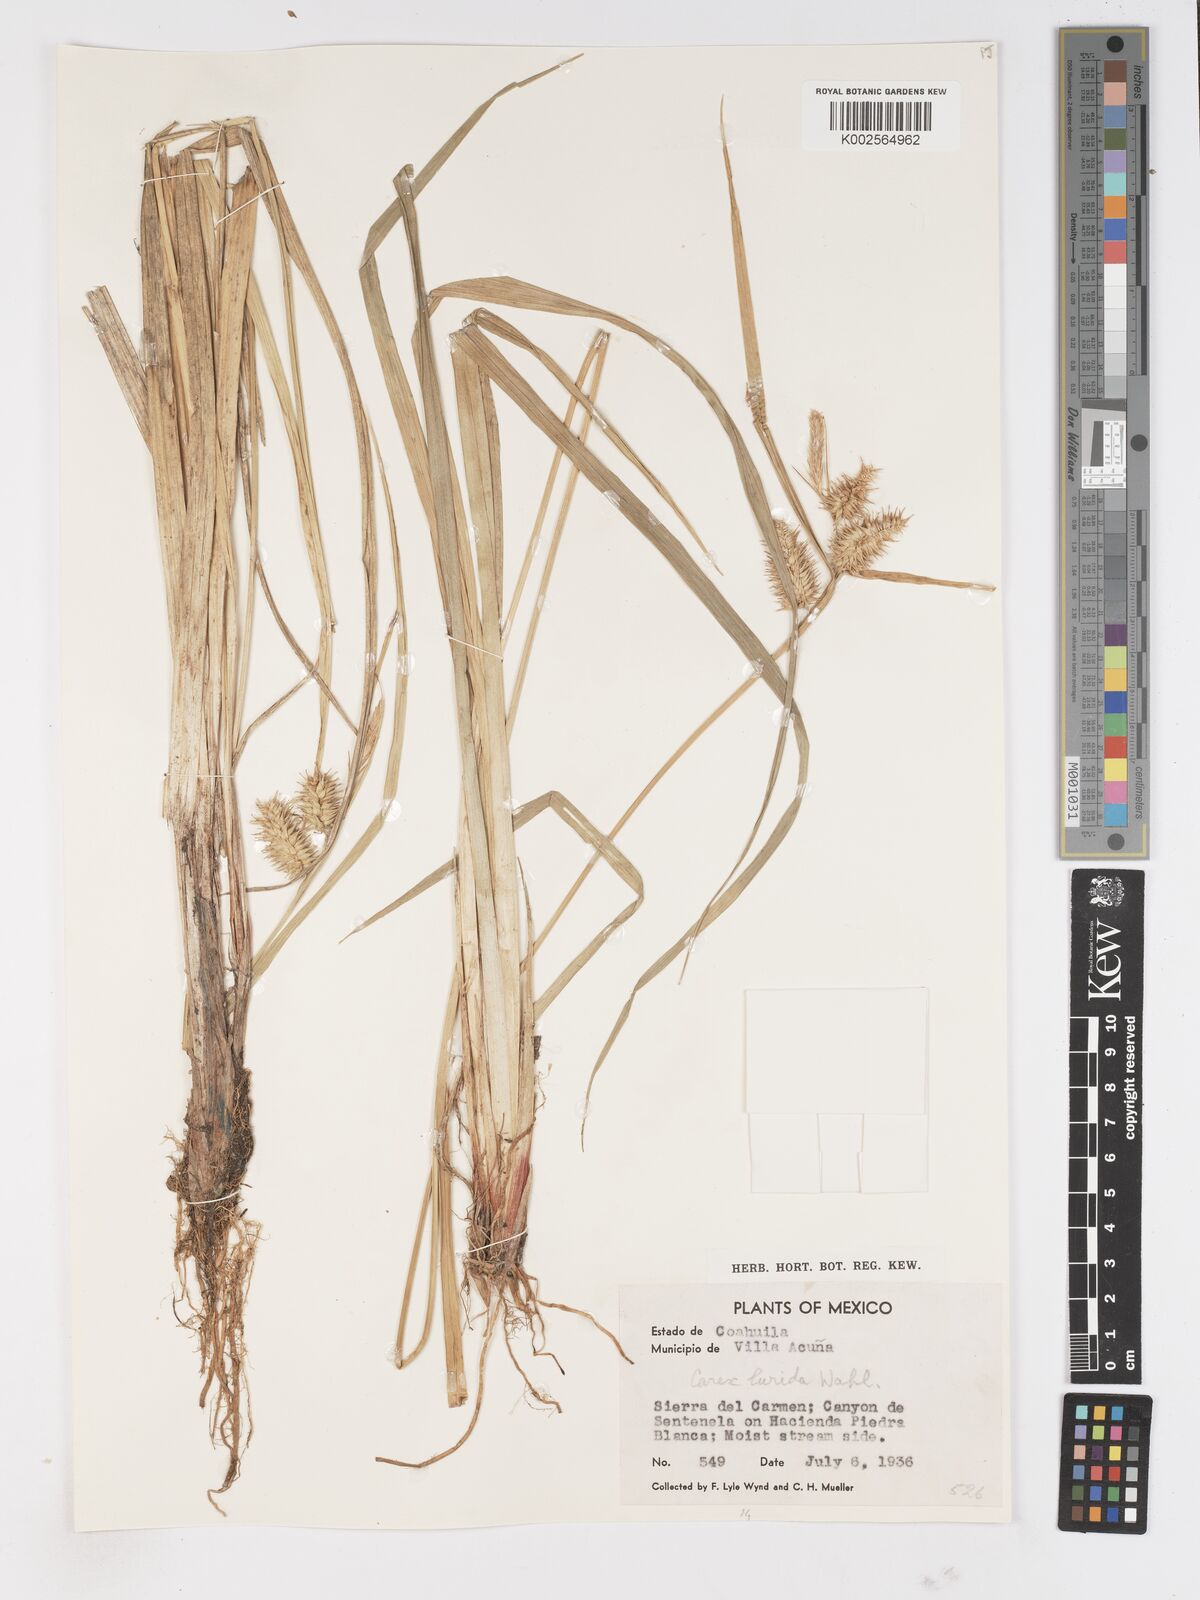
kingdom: Plantae
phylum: Tracheophyta
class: Liliopsida
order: Poales
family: Cyperaceae
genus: Carex
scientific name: Carex lurida
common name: Sallow sedge
